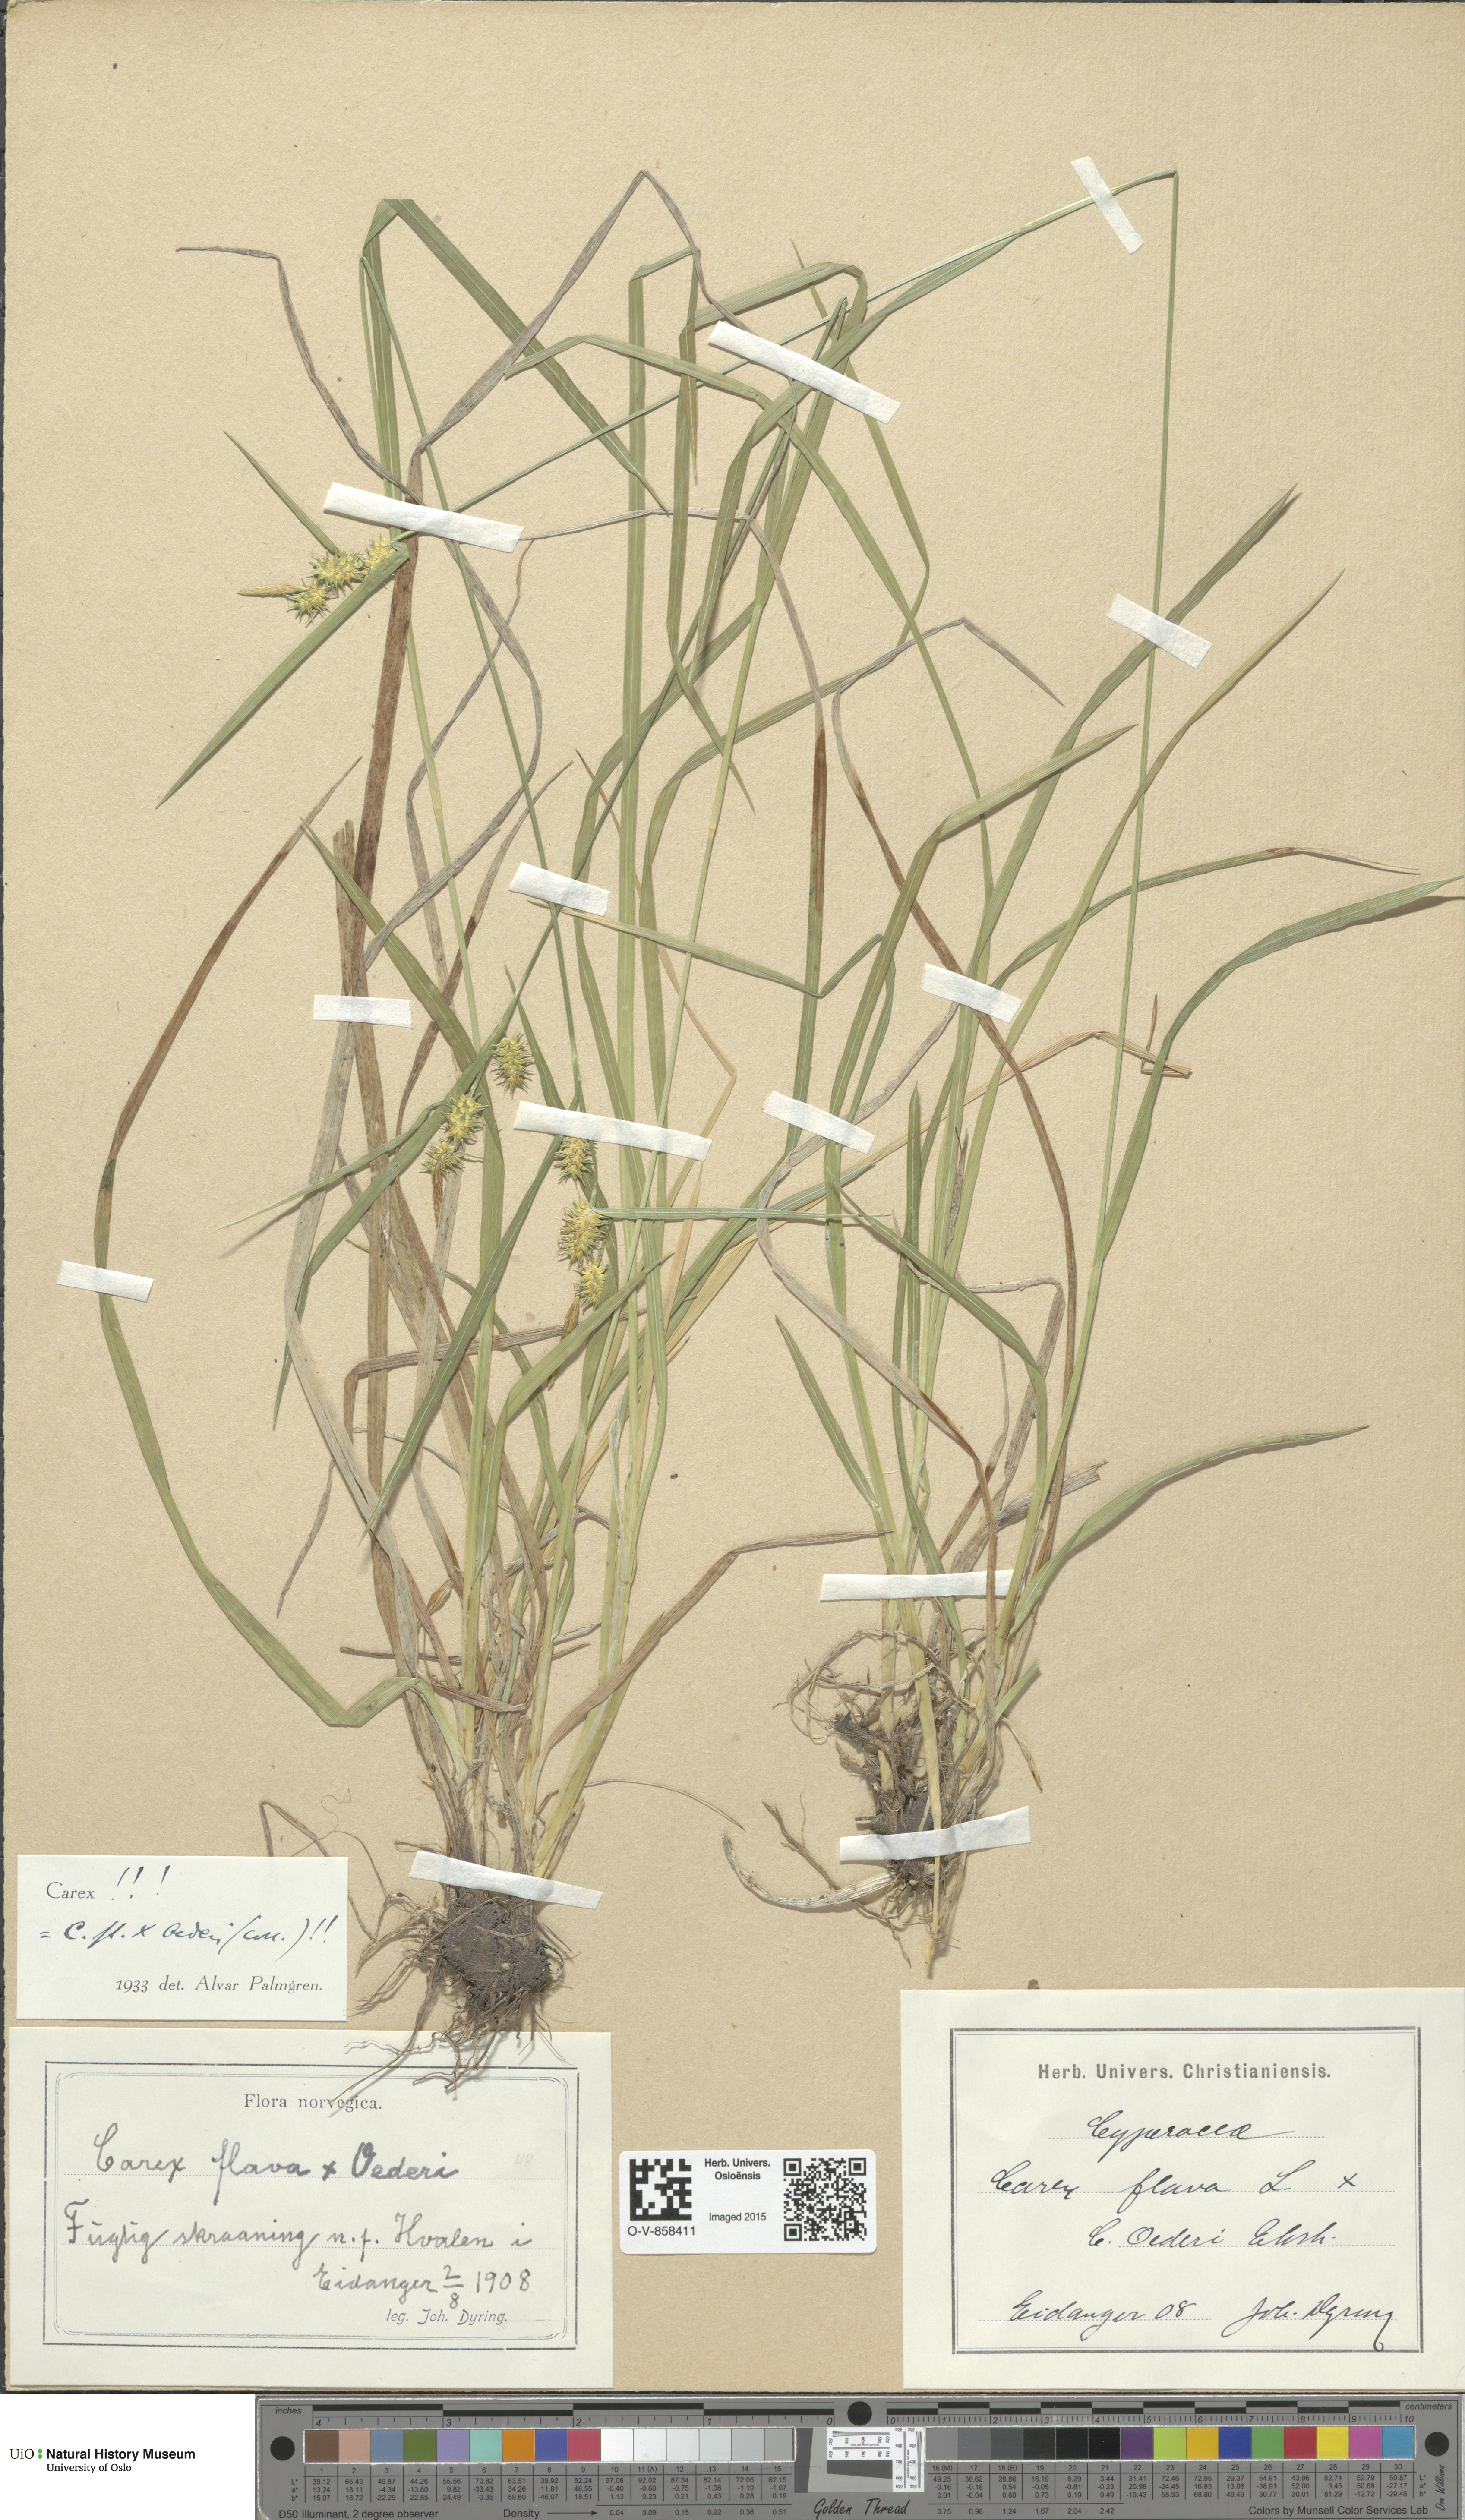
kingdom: Plantae
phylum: Tracheophyta
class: Liliopsida
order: Poales
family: Cyperaceae
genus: Carex
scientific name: Carex
